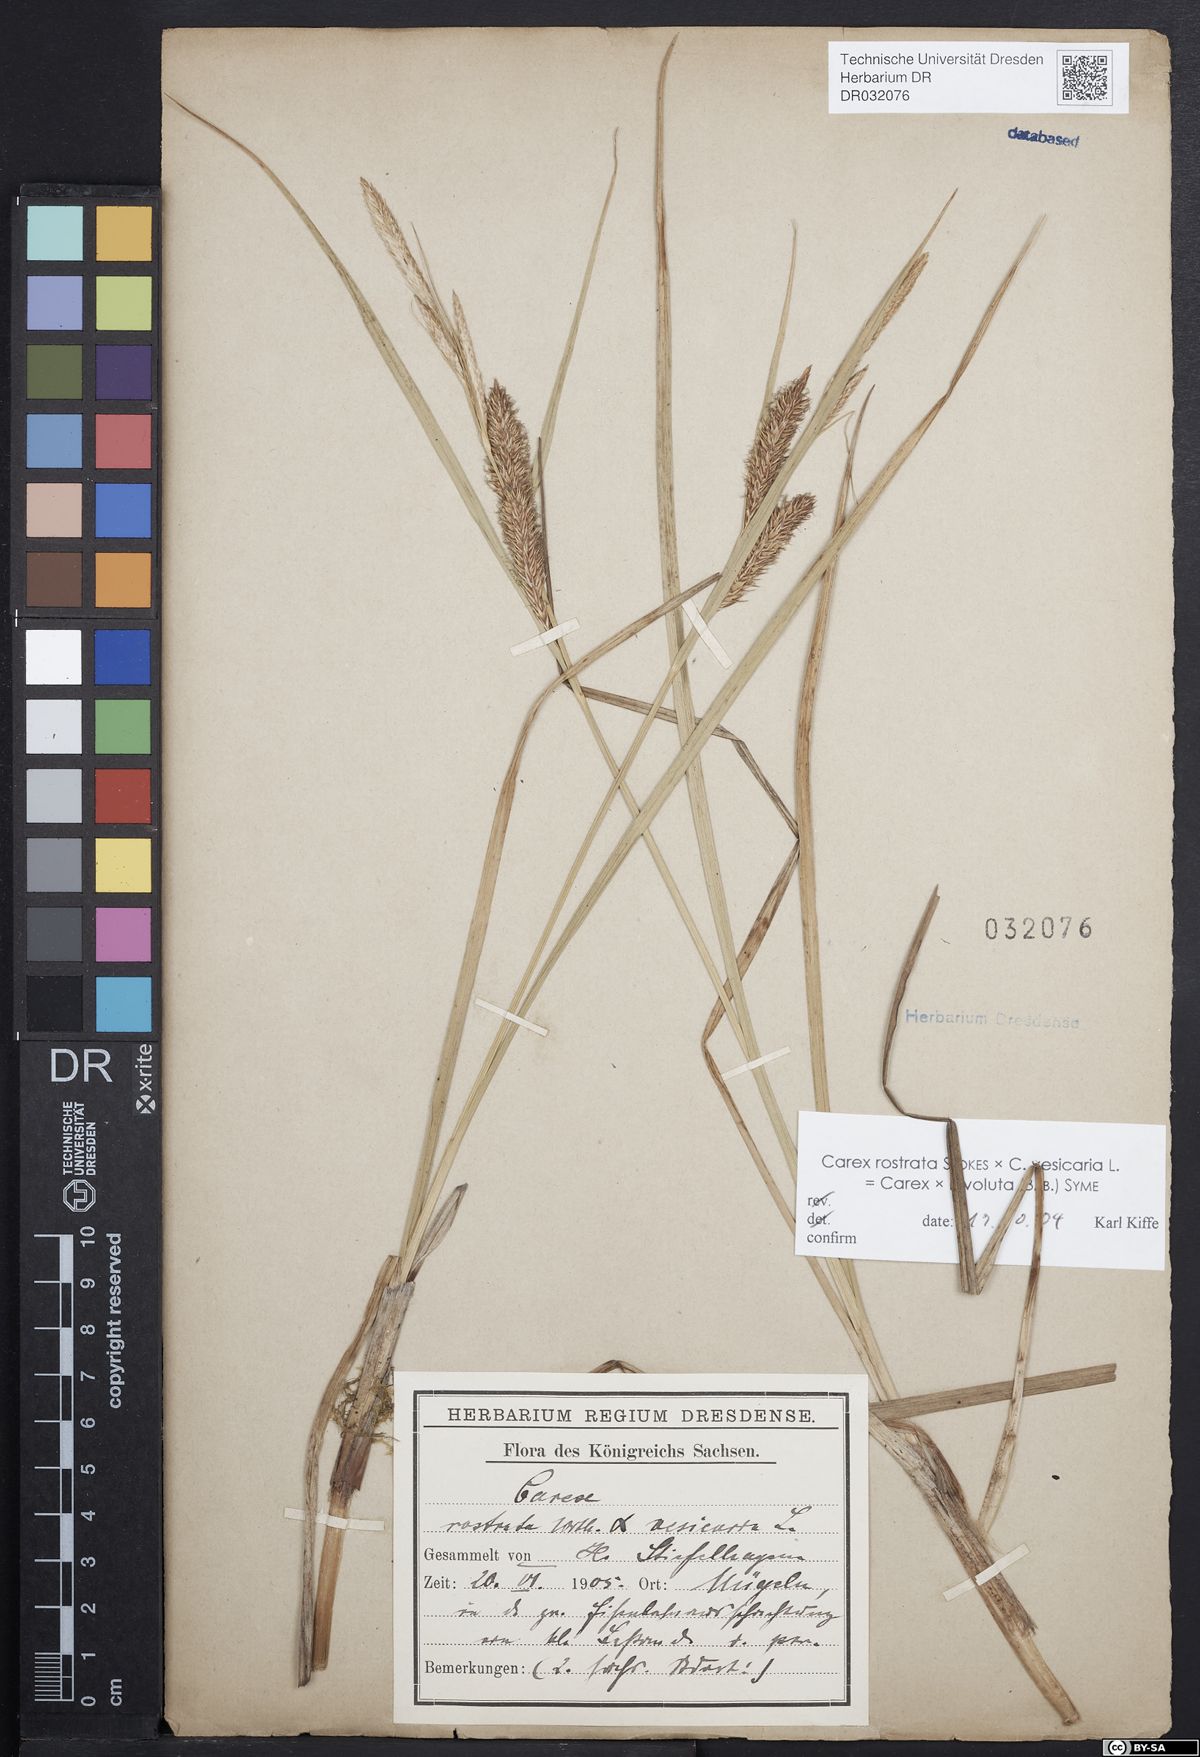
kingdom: Plantae
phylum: Tracheophyta
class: Liliopsida
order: Poales
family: Cyperaceae
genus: Carex
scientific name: Carex rostrata
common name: Bottle sedge
